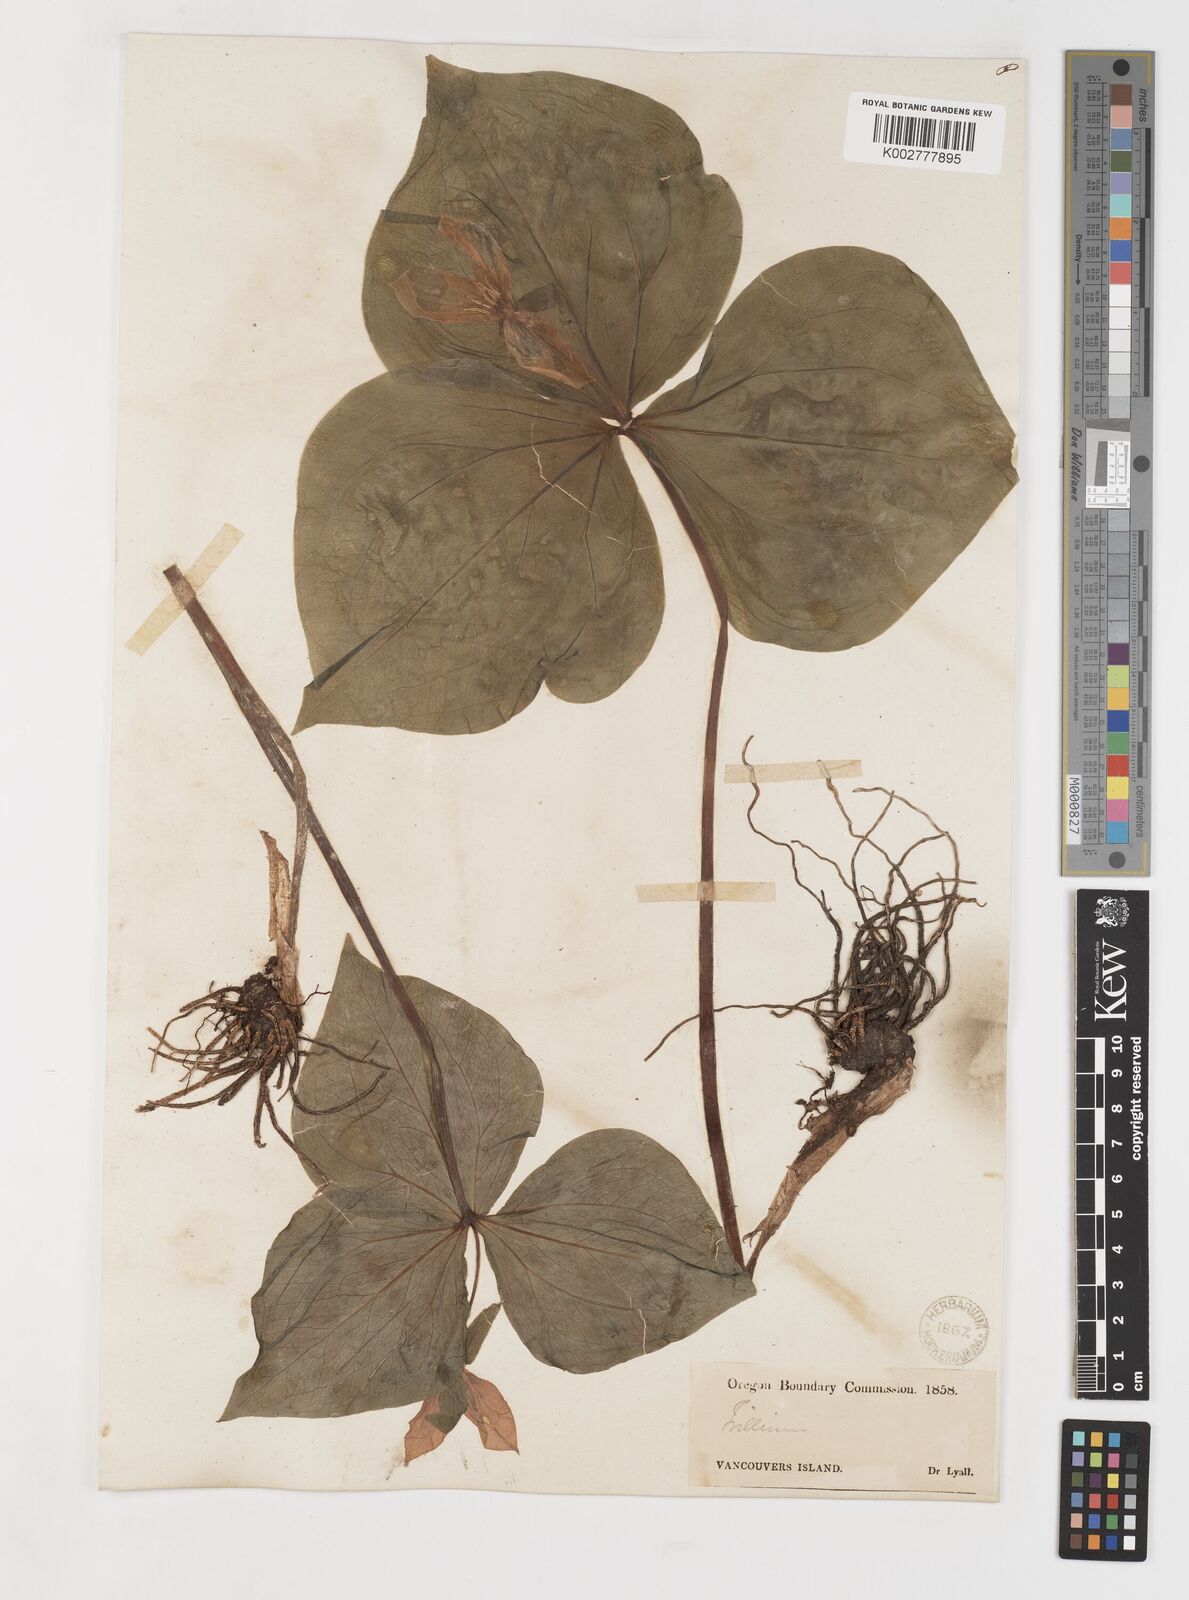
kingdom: Plantae
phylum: Tracheophyta
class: Liliopsida
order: Liliales
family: Melanthiaceae
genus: Trillium
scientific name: Trillium grandiflorum
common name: Great white trillium
